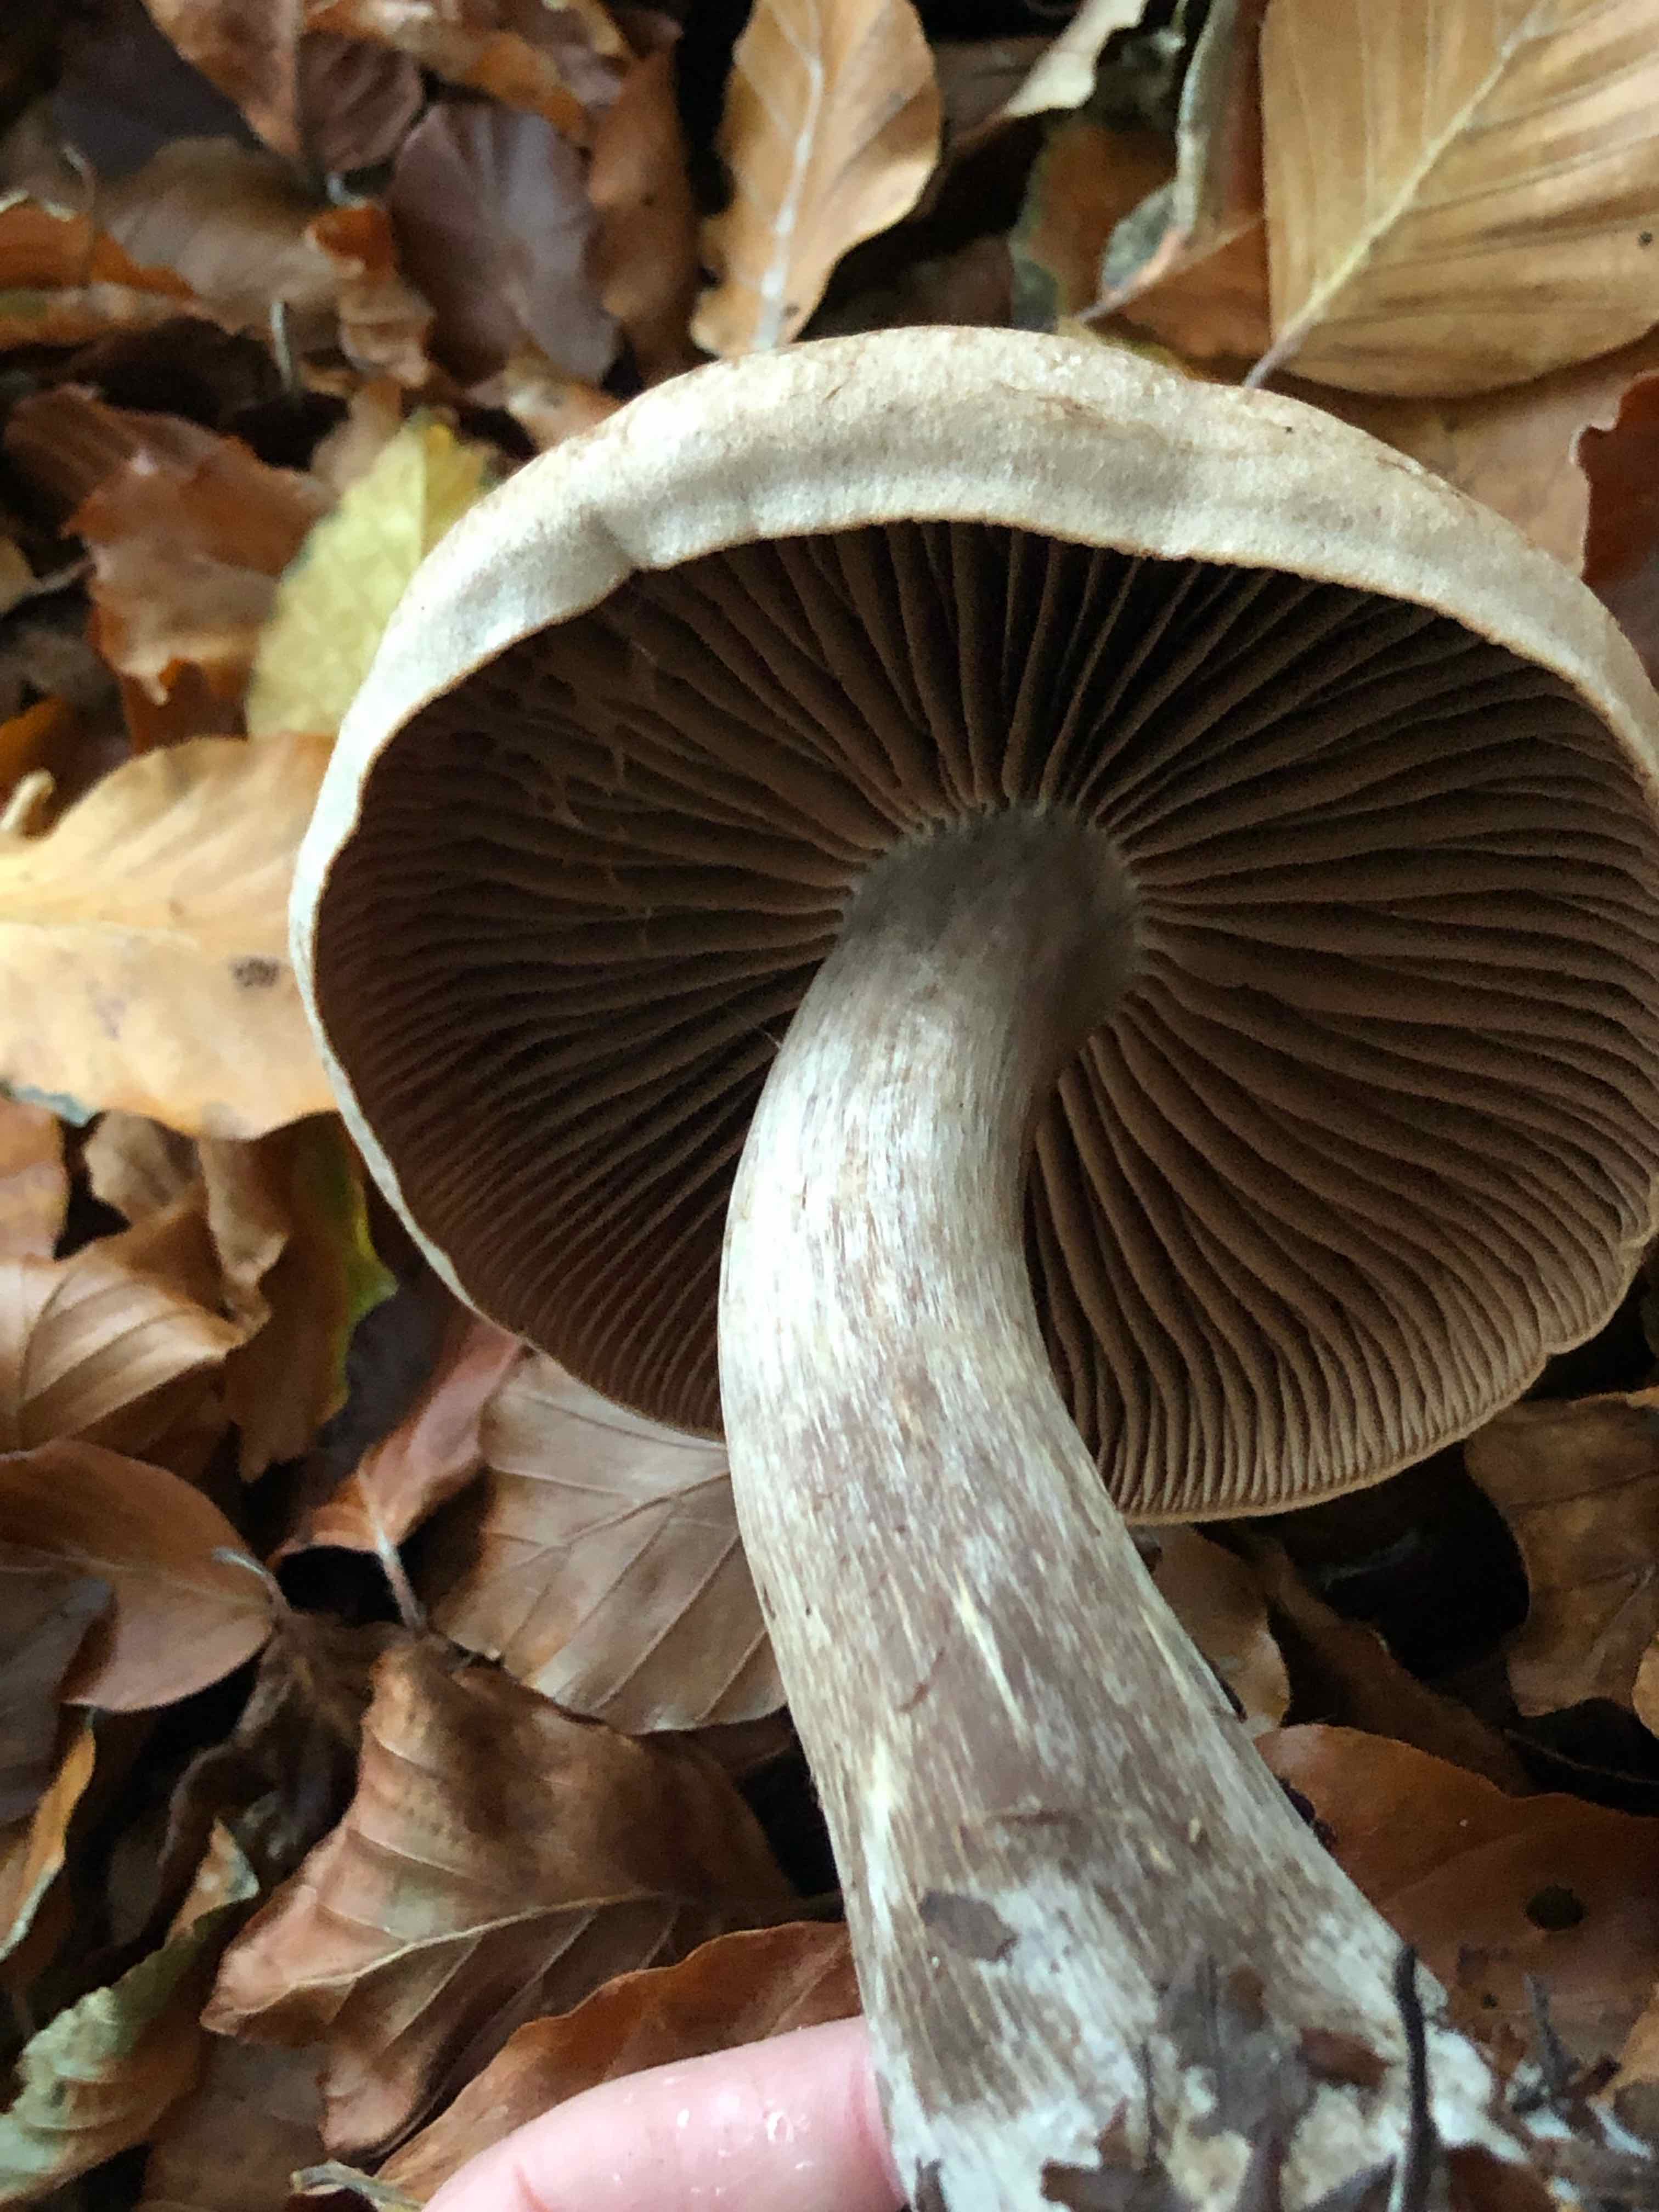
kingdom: Fungi
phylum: Basidiomycota
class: Agaricomycetes
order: Agaricales
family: Cortinariaceae
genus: Cortinarius
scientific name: Cortinarius
